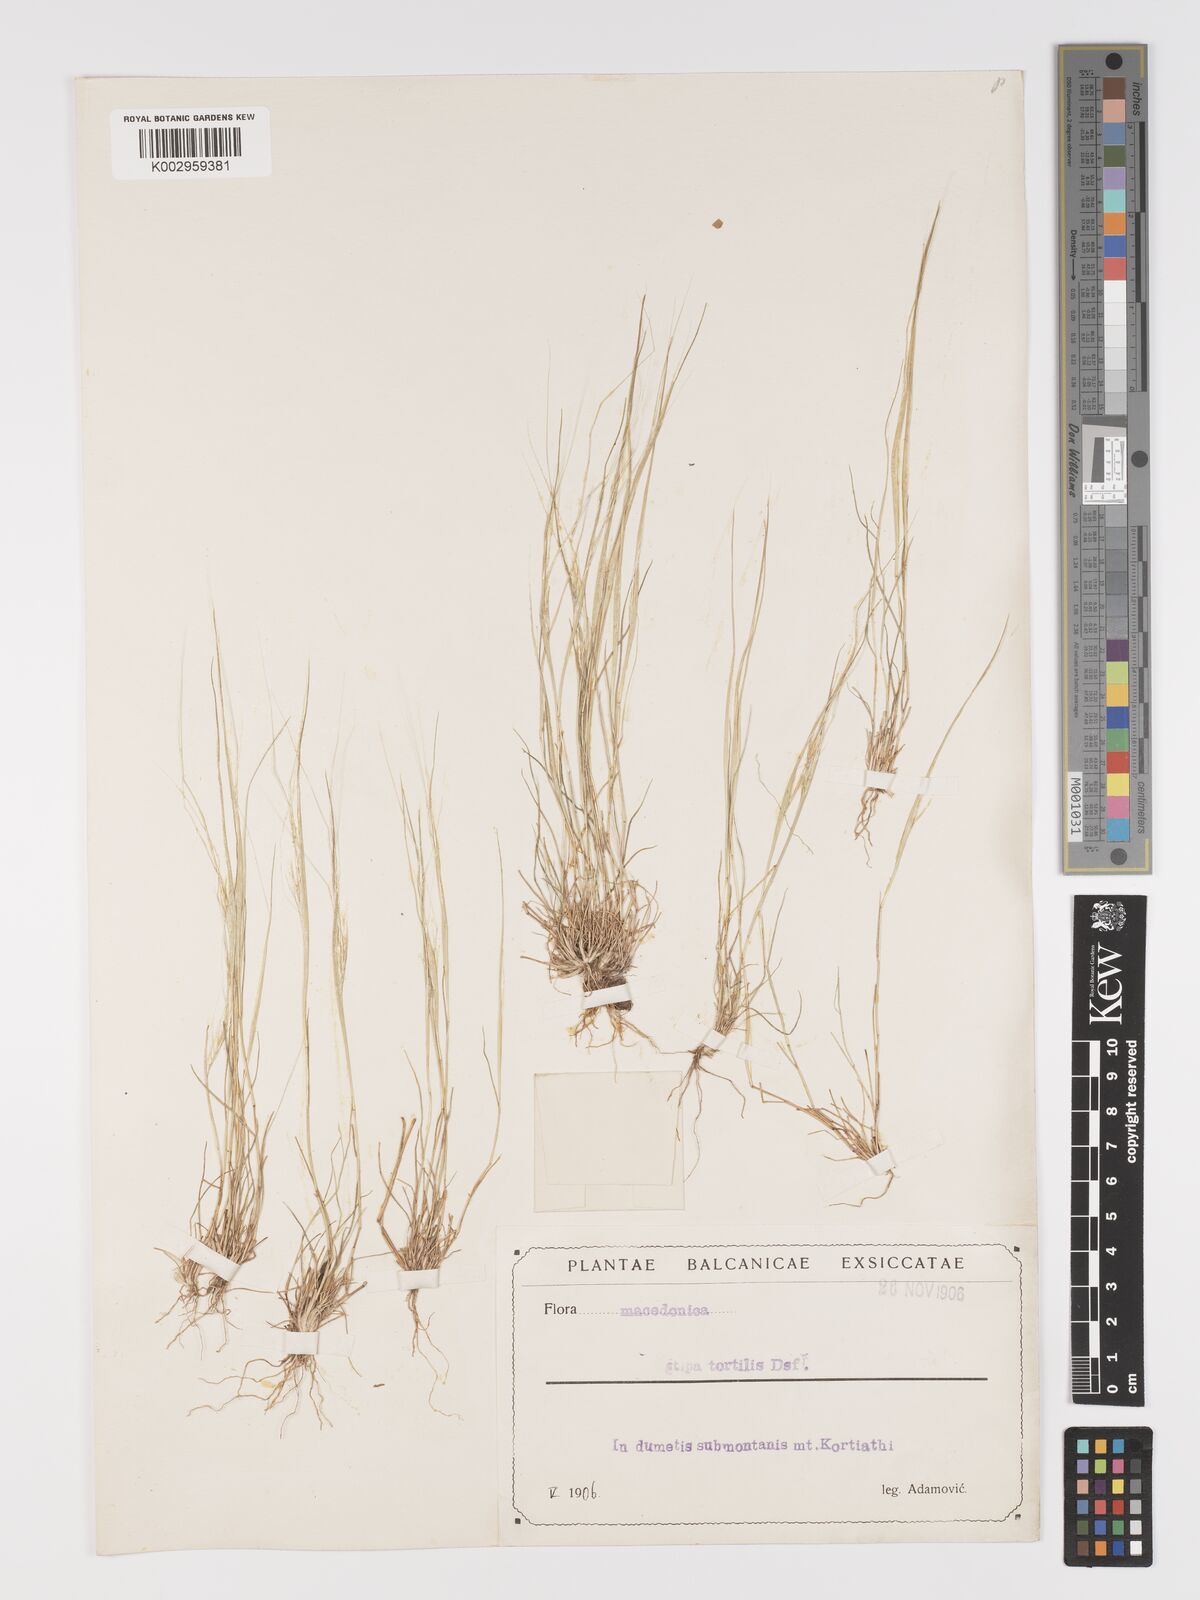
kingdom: Plantae
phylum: Tracheophyta
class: Liliopsida
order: Poales
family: Poaceae
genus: Stipellula
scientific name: Stipellula capensis
